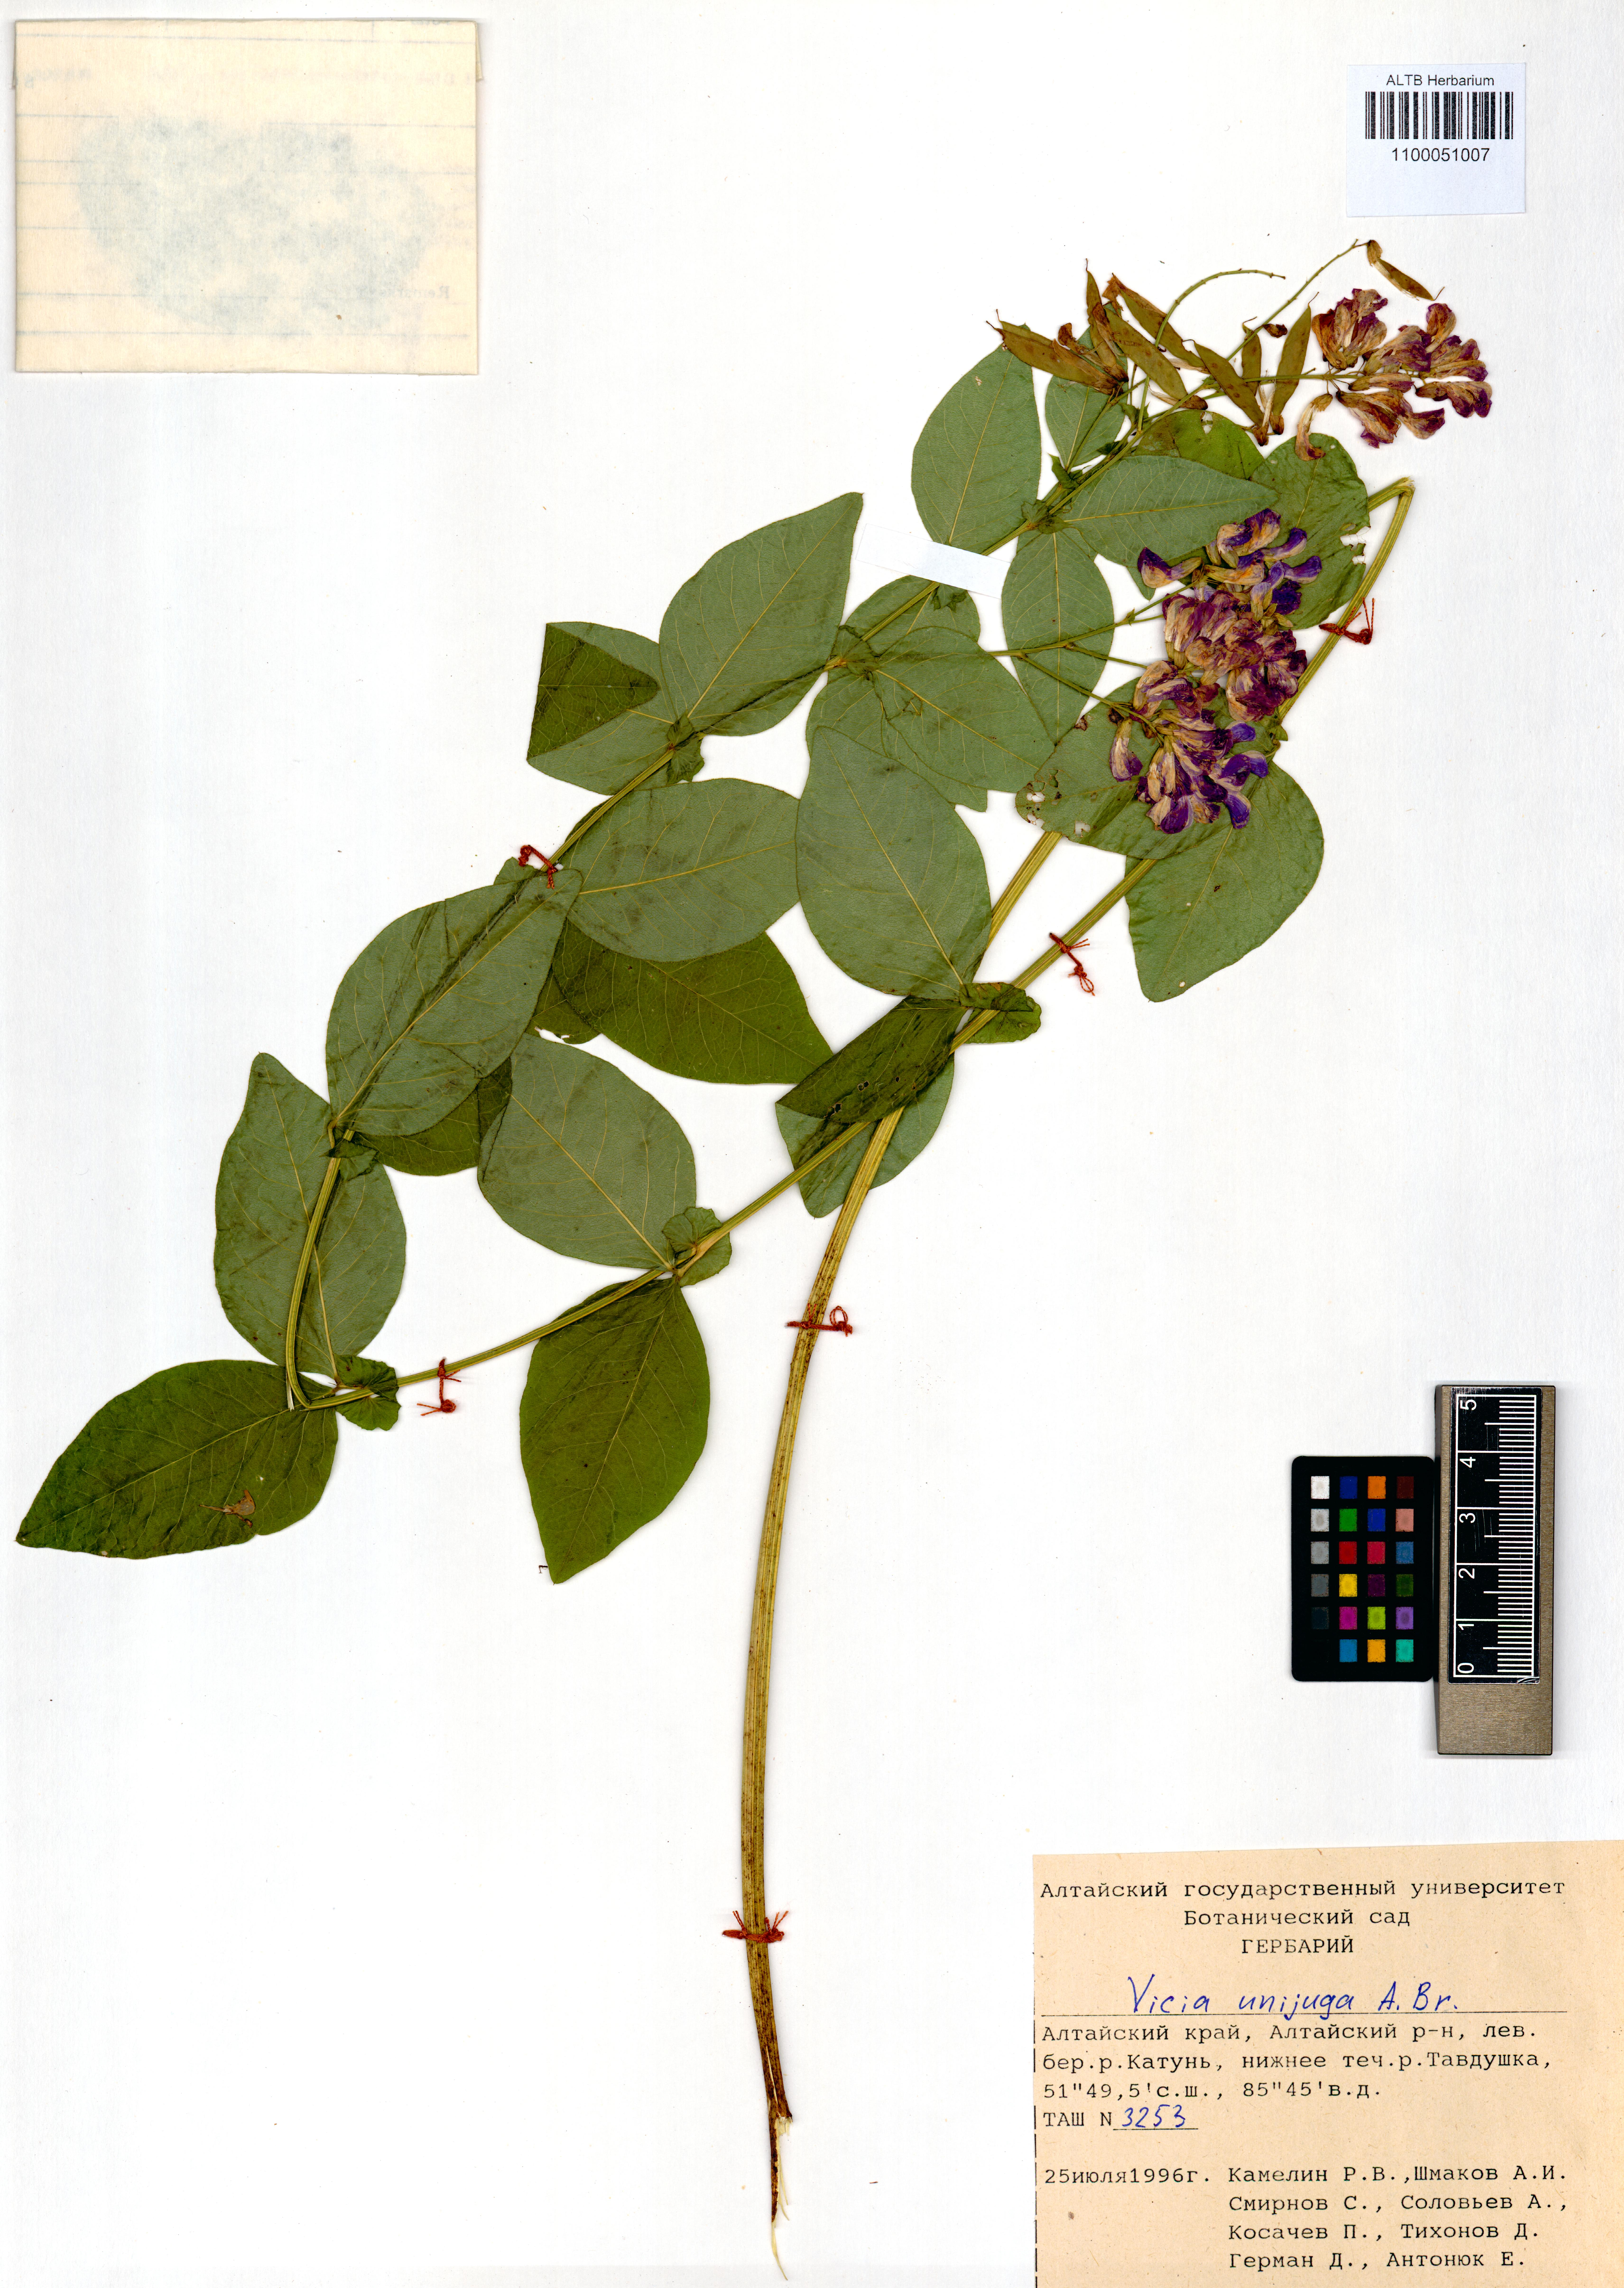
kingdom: Plantae
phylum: Tracheophyta
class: Magnoliopsida
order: Fabales
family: Fabaceae
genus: Vicia
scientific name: Vicia unijuga
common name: Two-leaf vetch
